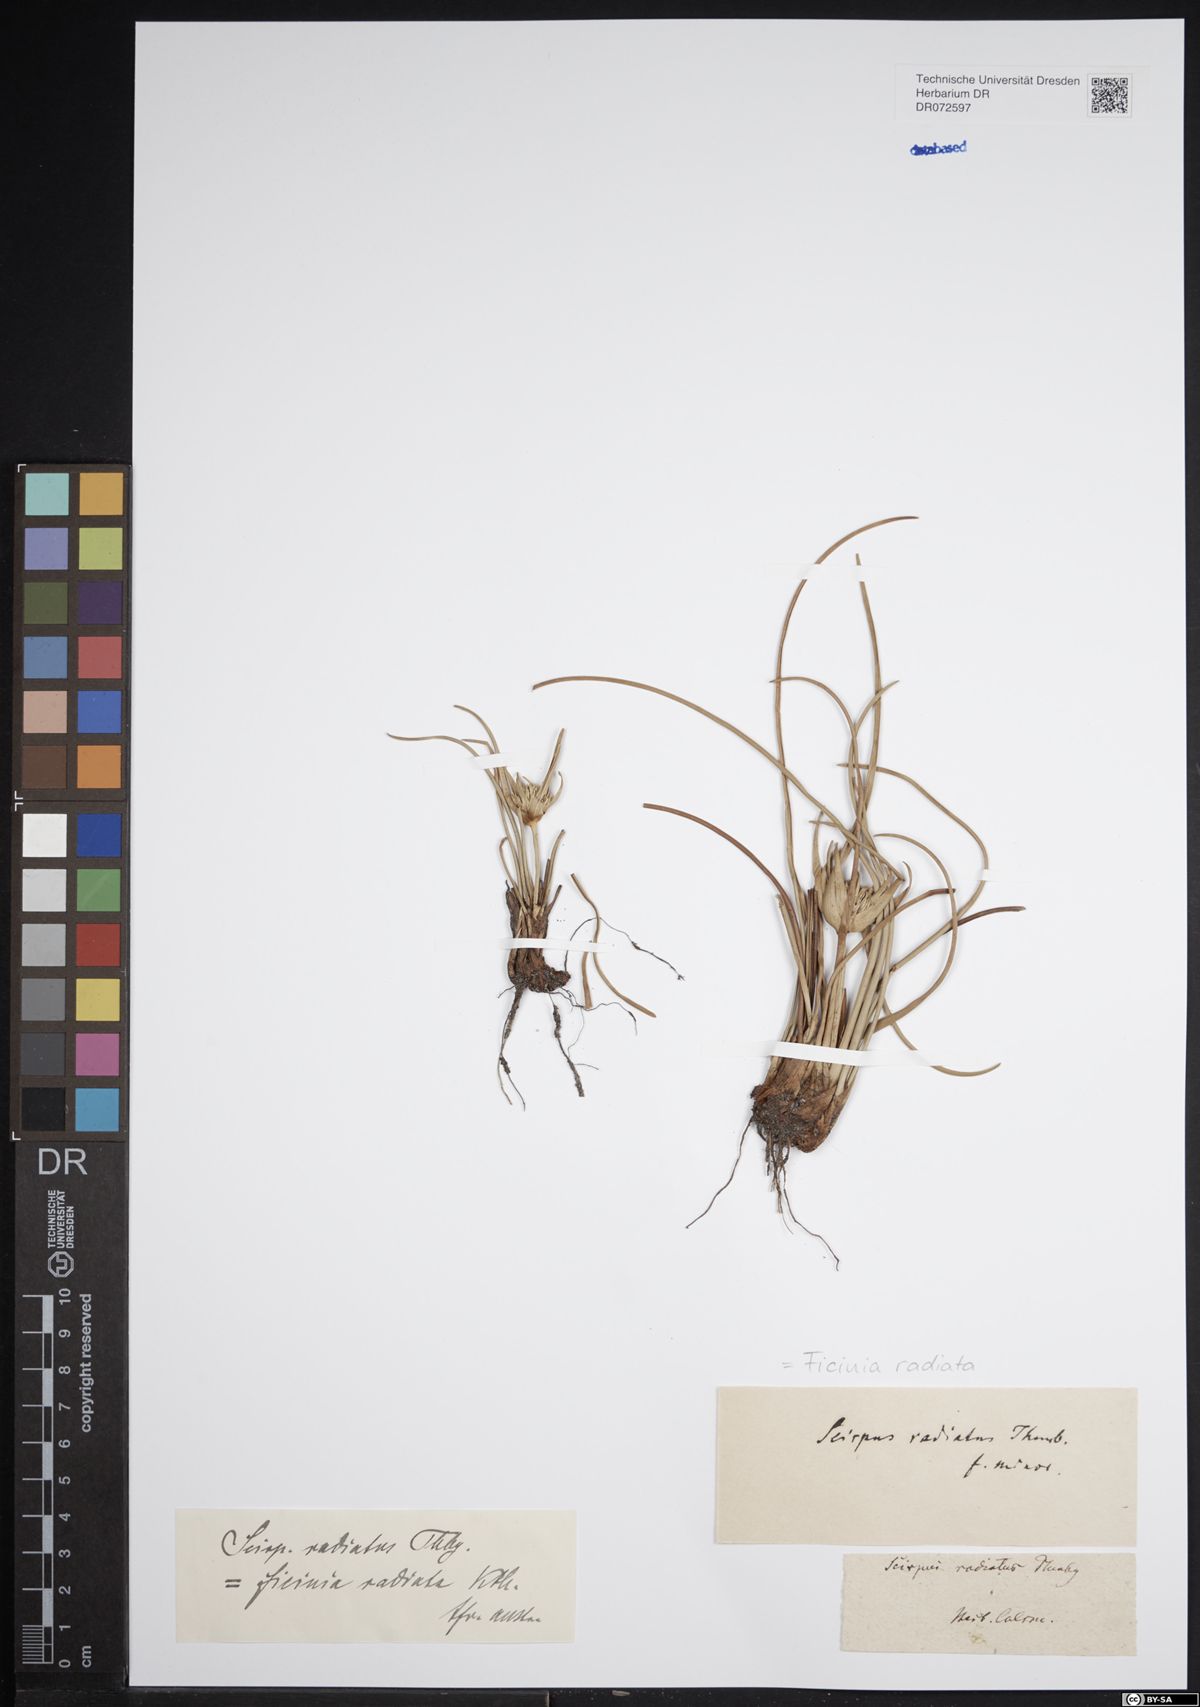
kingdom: Plantae
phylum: Tracheophyta
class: Liliopsida
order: Poales
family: Cyperaceae
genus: Ficinia
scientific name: Ficinia radiata
